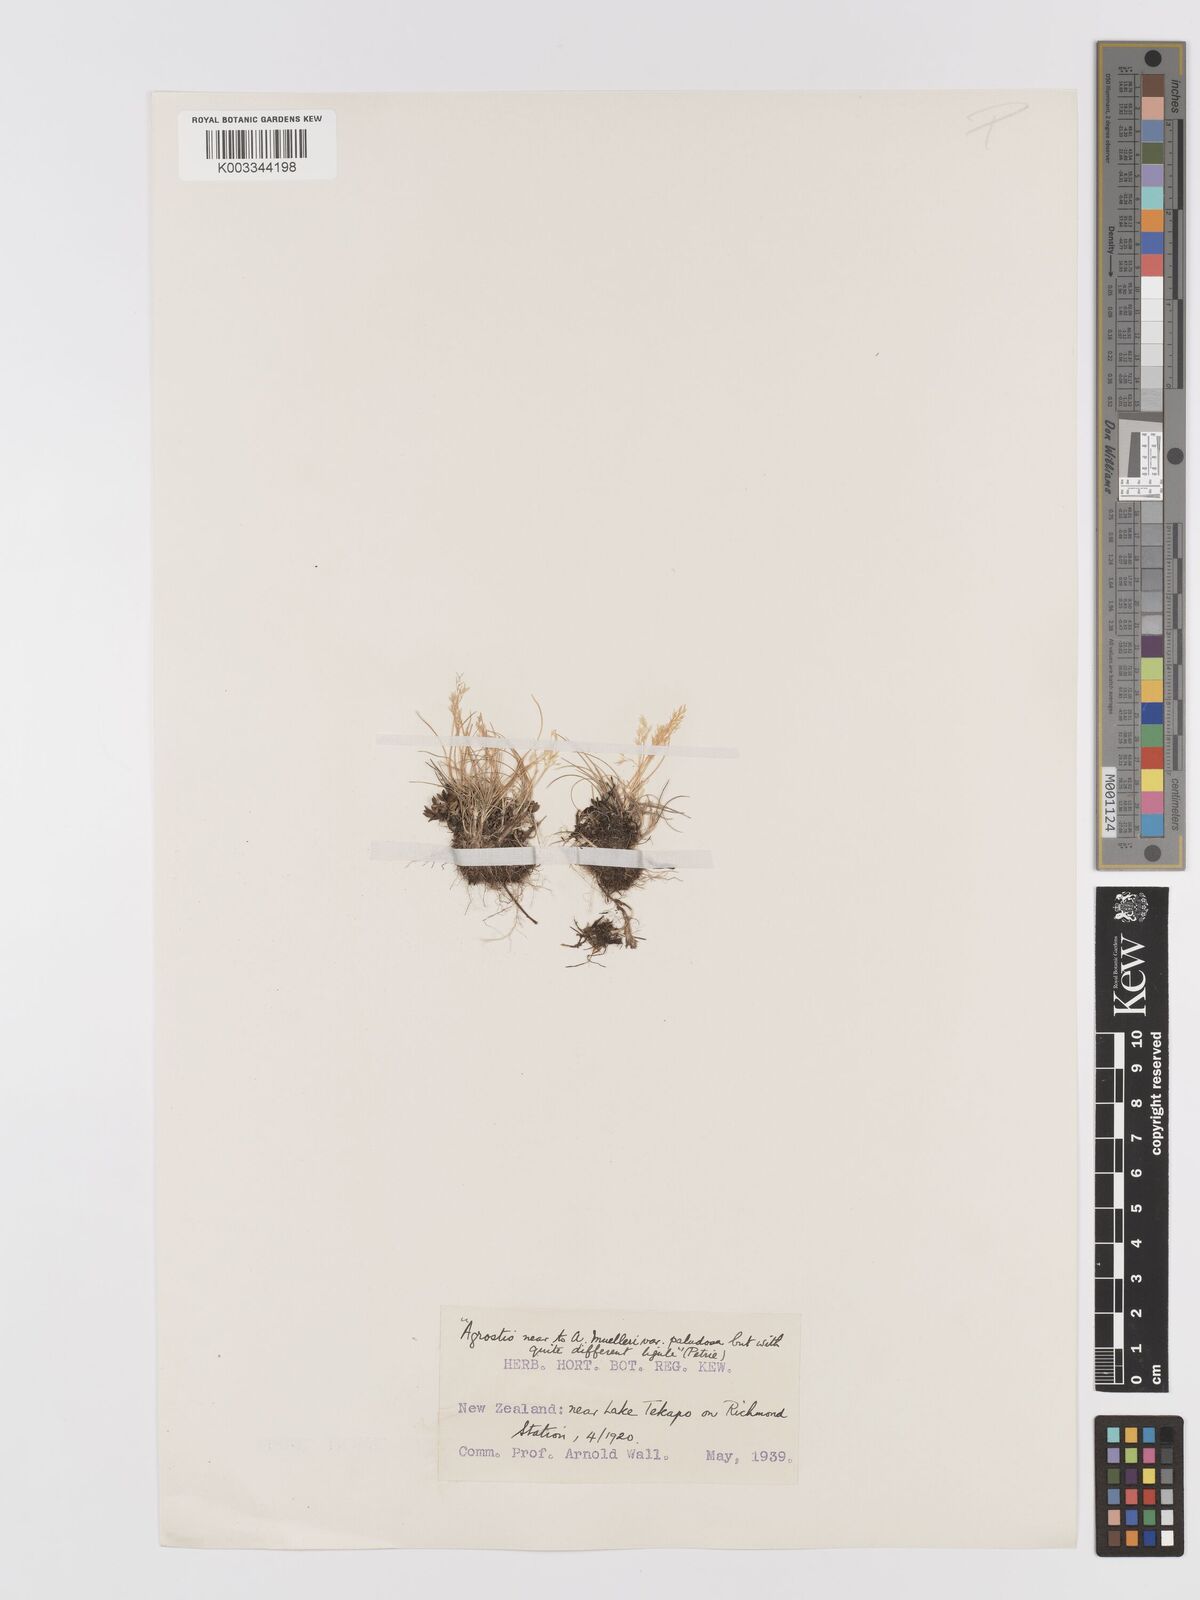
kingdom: Plantae
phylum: Tracheophyta
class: Liliopsida
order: Poales
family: Poaceae
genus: Agrostis
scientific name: Agrostis
